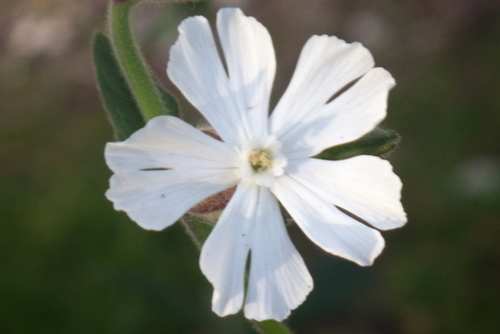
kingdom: Plantae
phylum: Tracheophyta
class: Magnoliopsida
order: Caryophyllales
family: Caryophyllaceae
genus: Silene
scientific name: Silene latifolia
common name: White campion
